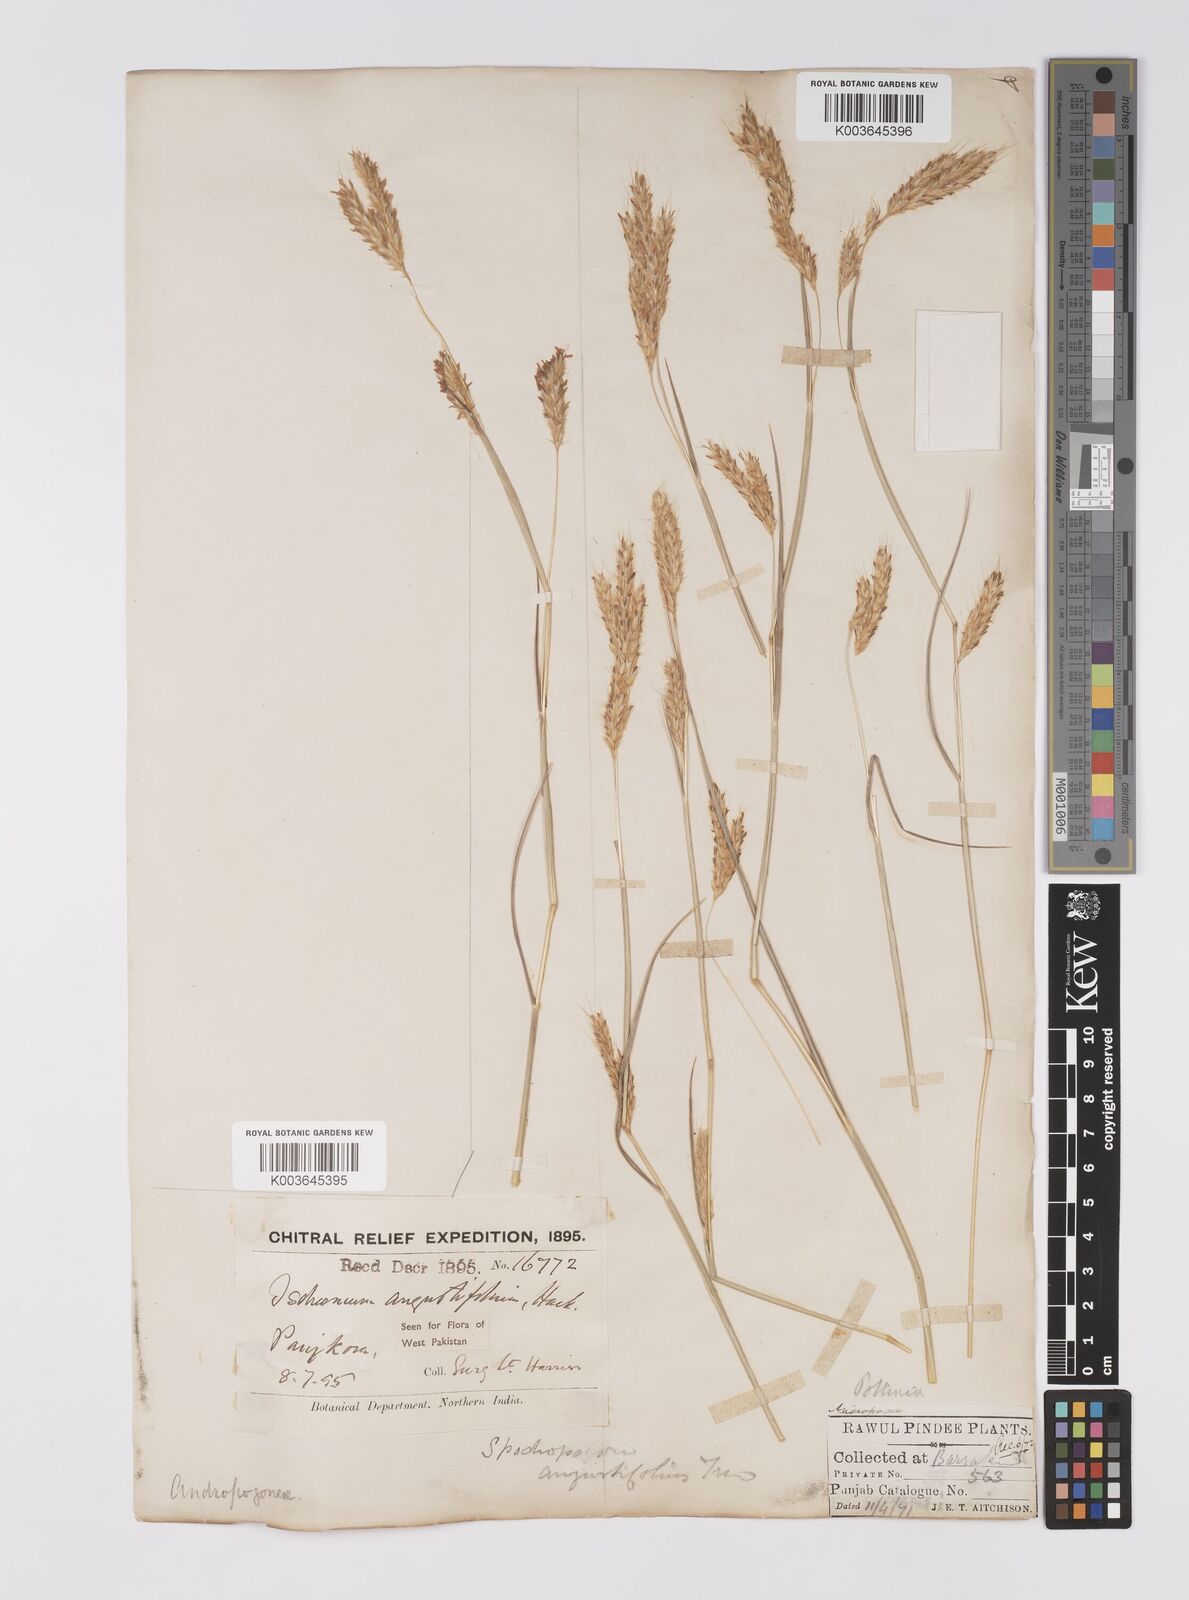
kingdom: Plantae
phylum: Tracheophyta
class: Liliopsida
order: Poales
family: Poaceae
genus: Eulaliopsis
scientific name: Eulaliopsis binata
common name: Baib grass
